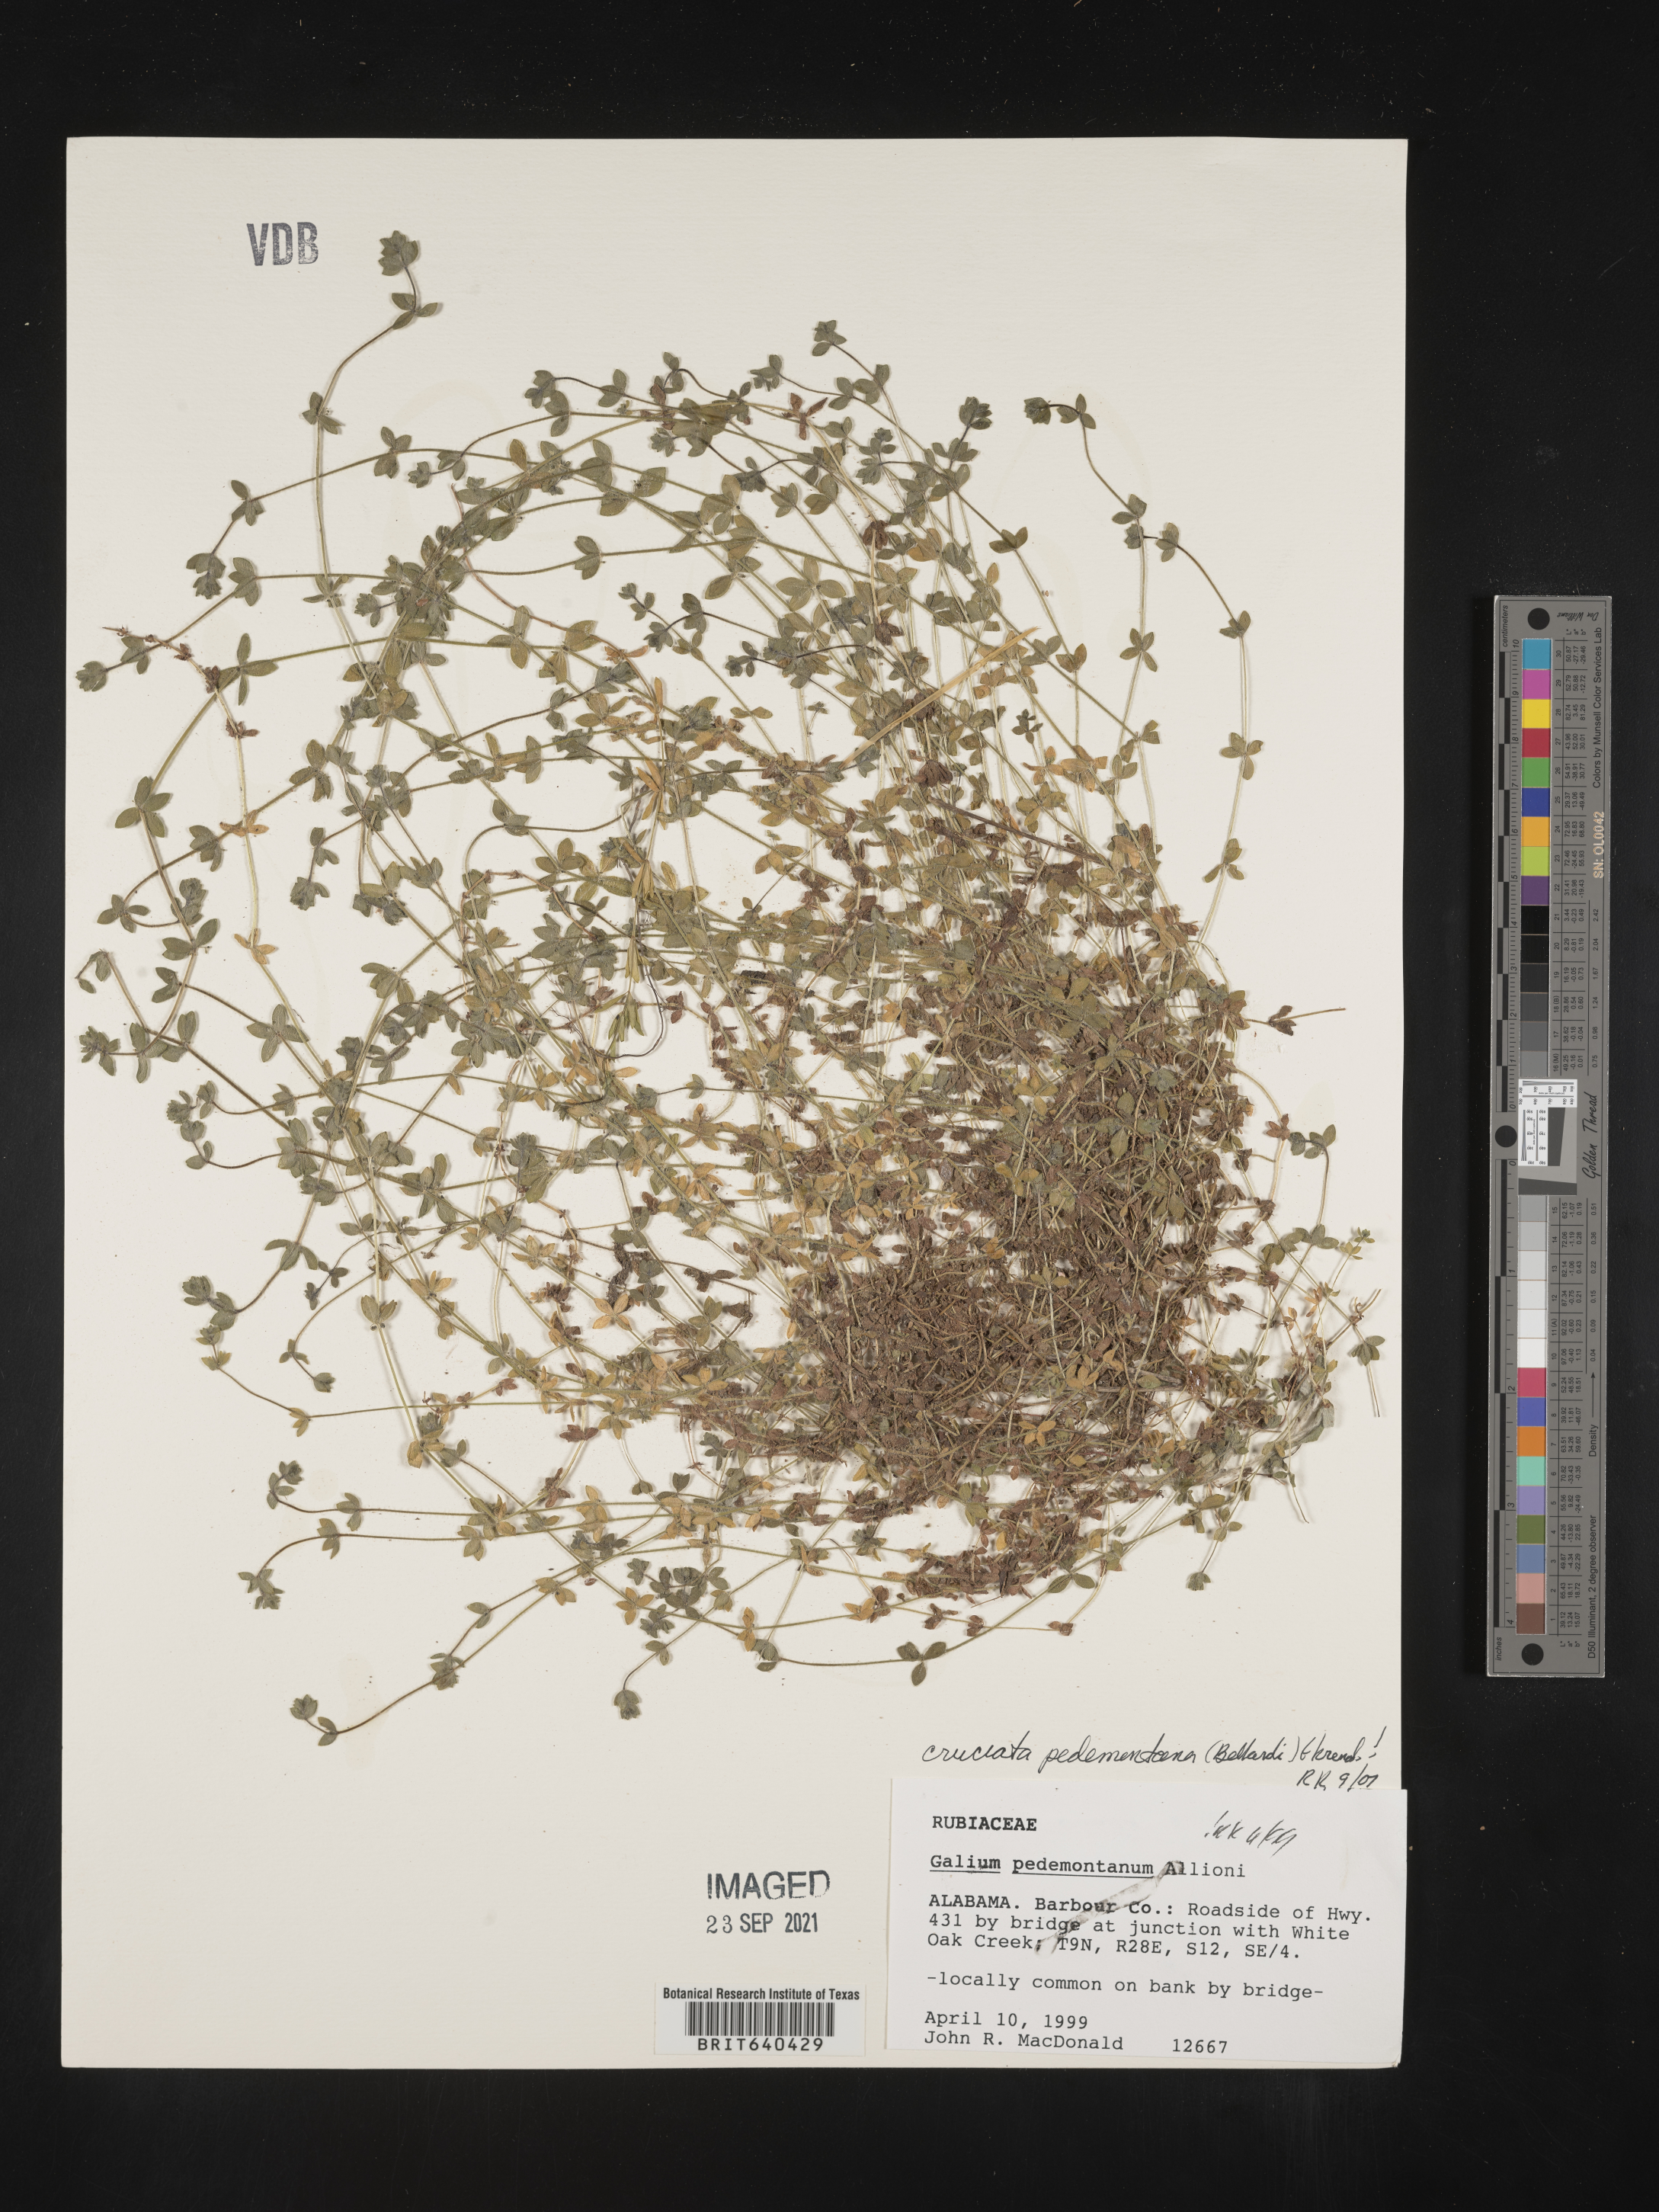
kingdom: Plantae
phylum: Tracheophyta
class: Magnoliopsida
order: Gentianales
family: Rubiaceae
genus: Cruciata
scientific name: Cruciata
